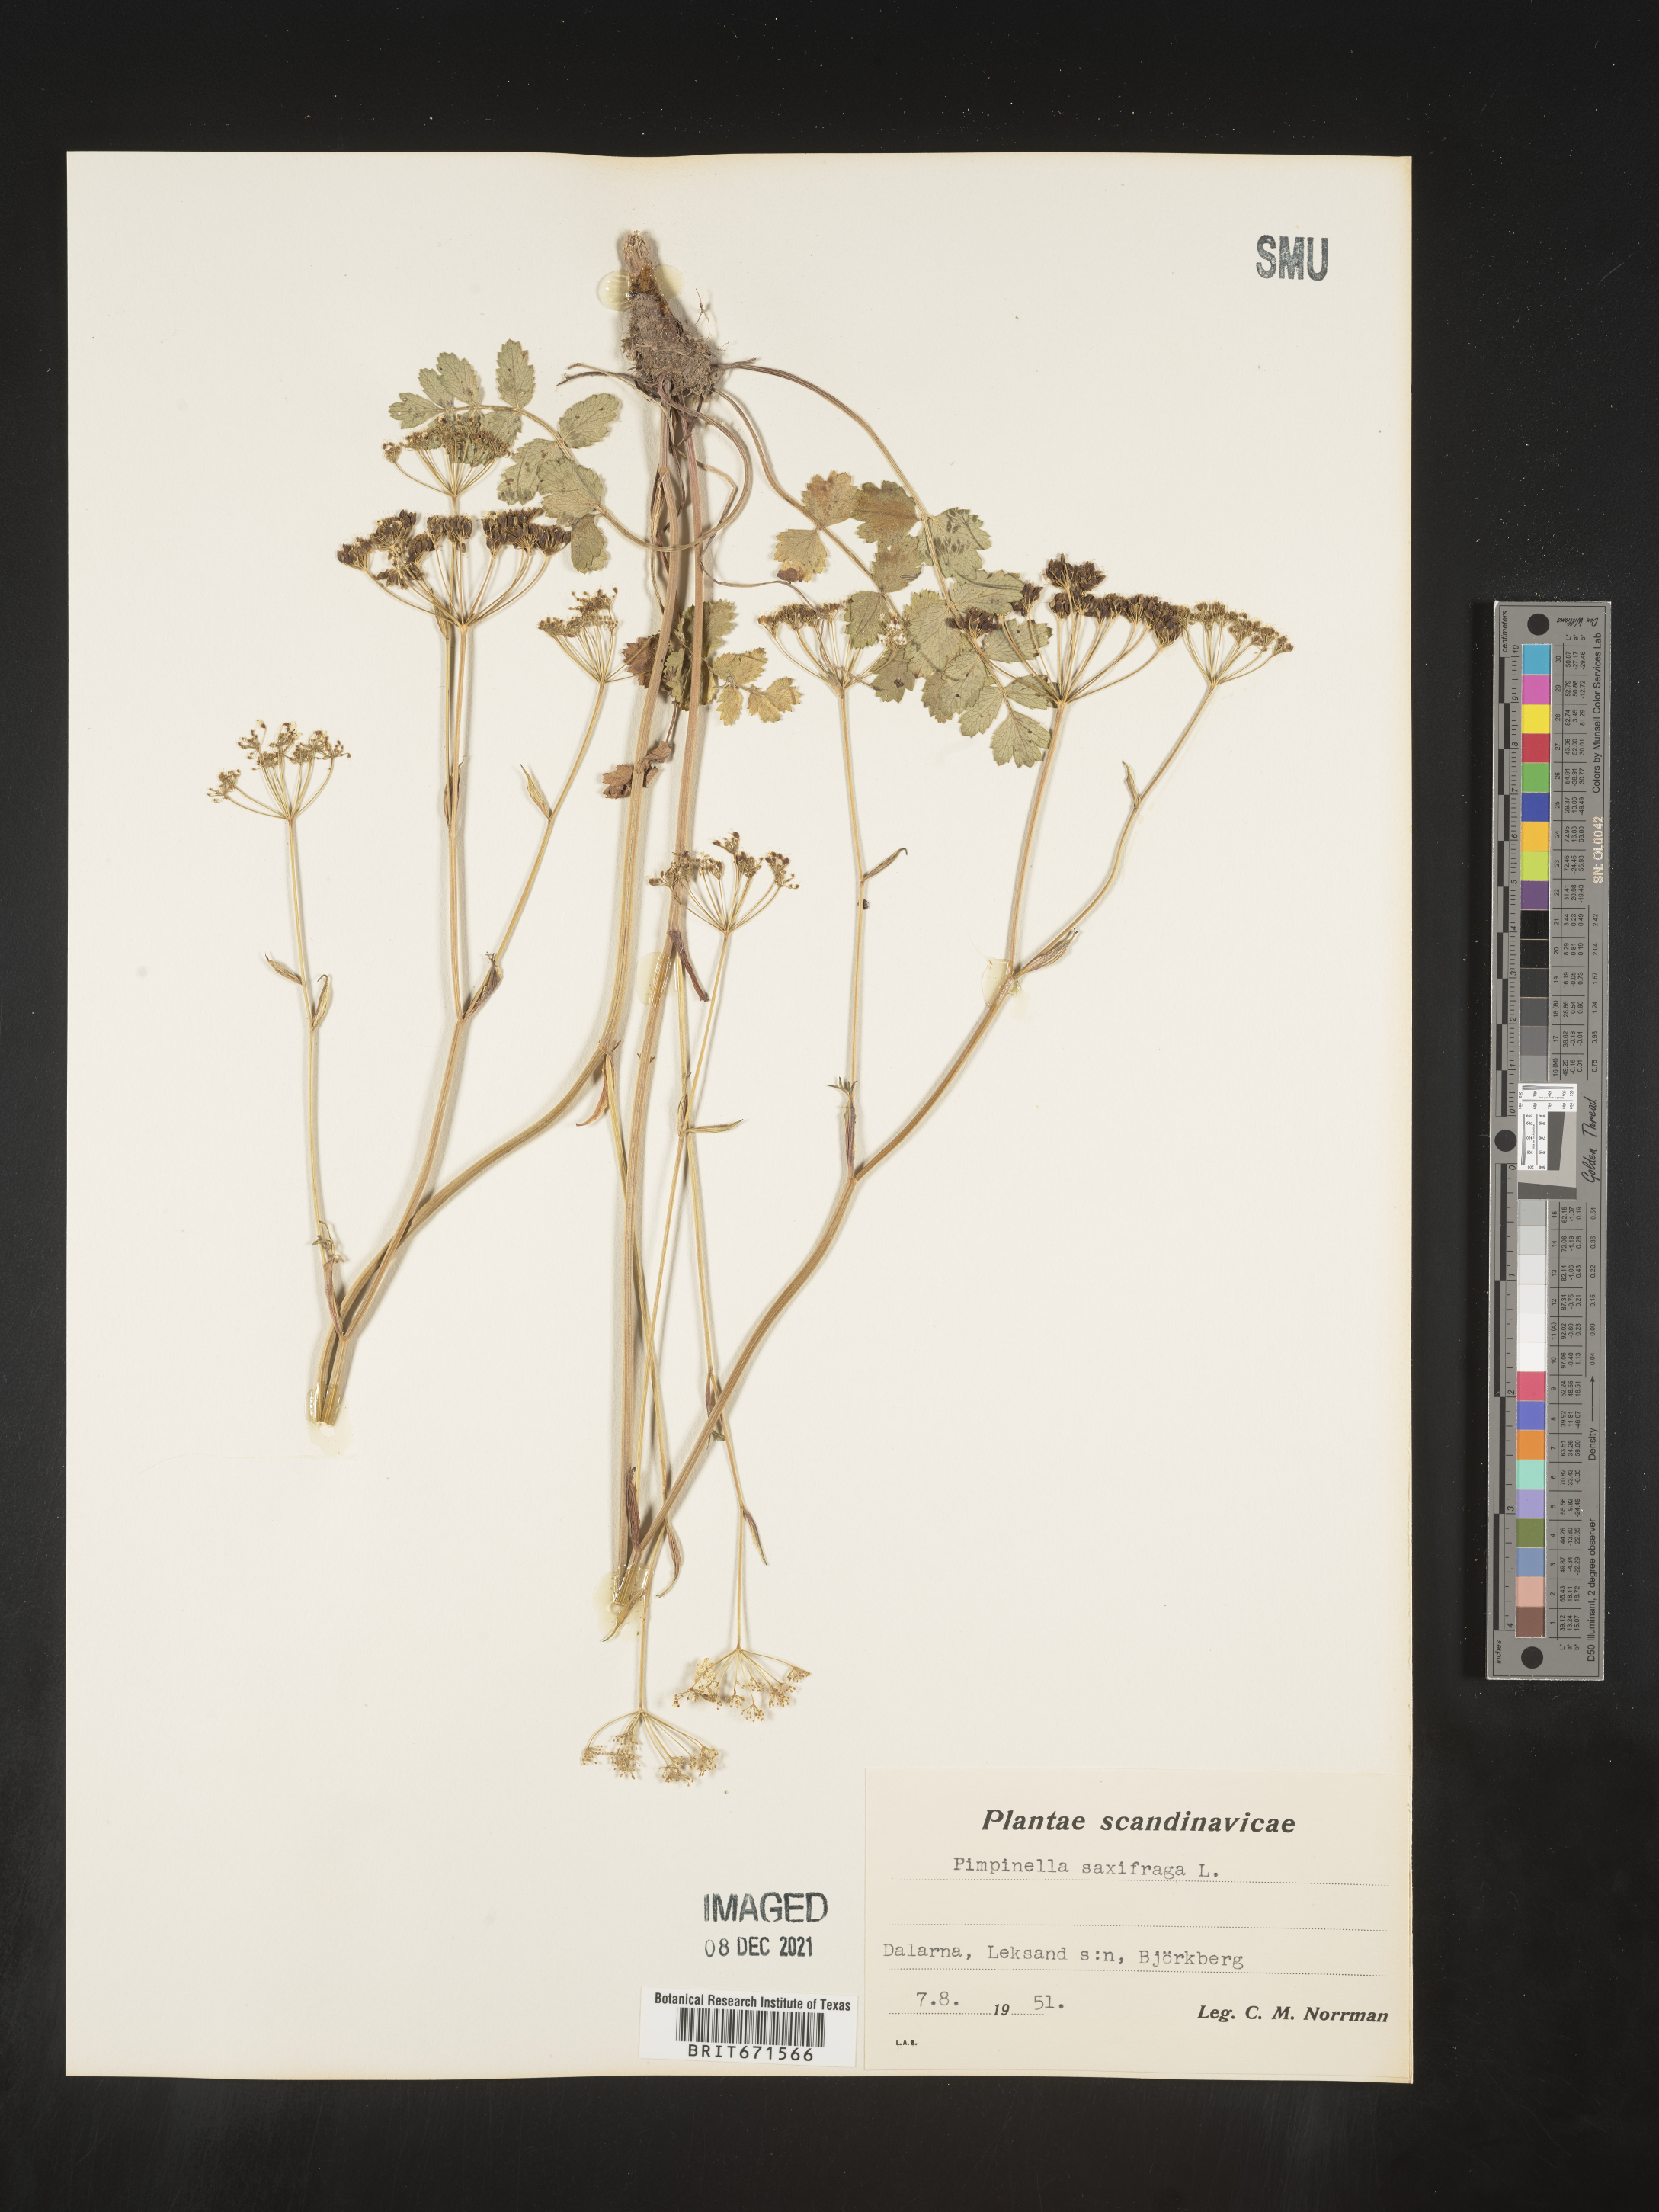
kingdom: Plantae
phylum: Tracheophyta
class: Magnoliopsida
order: Apiales
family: Apiaceae
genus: Pimpinella
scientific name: Pimpinella
